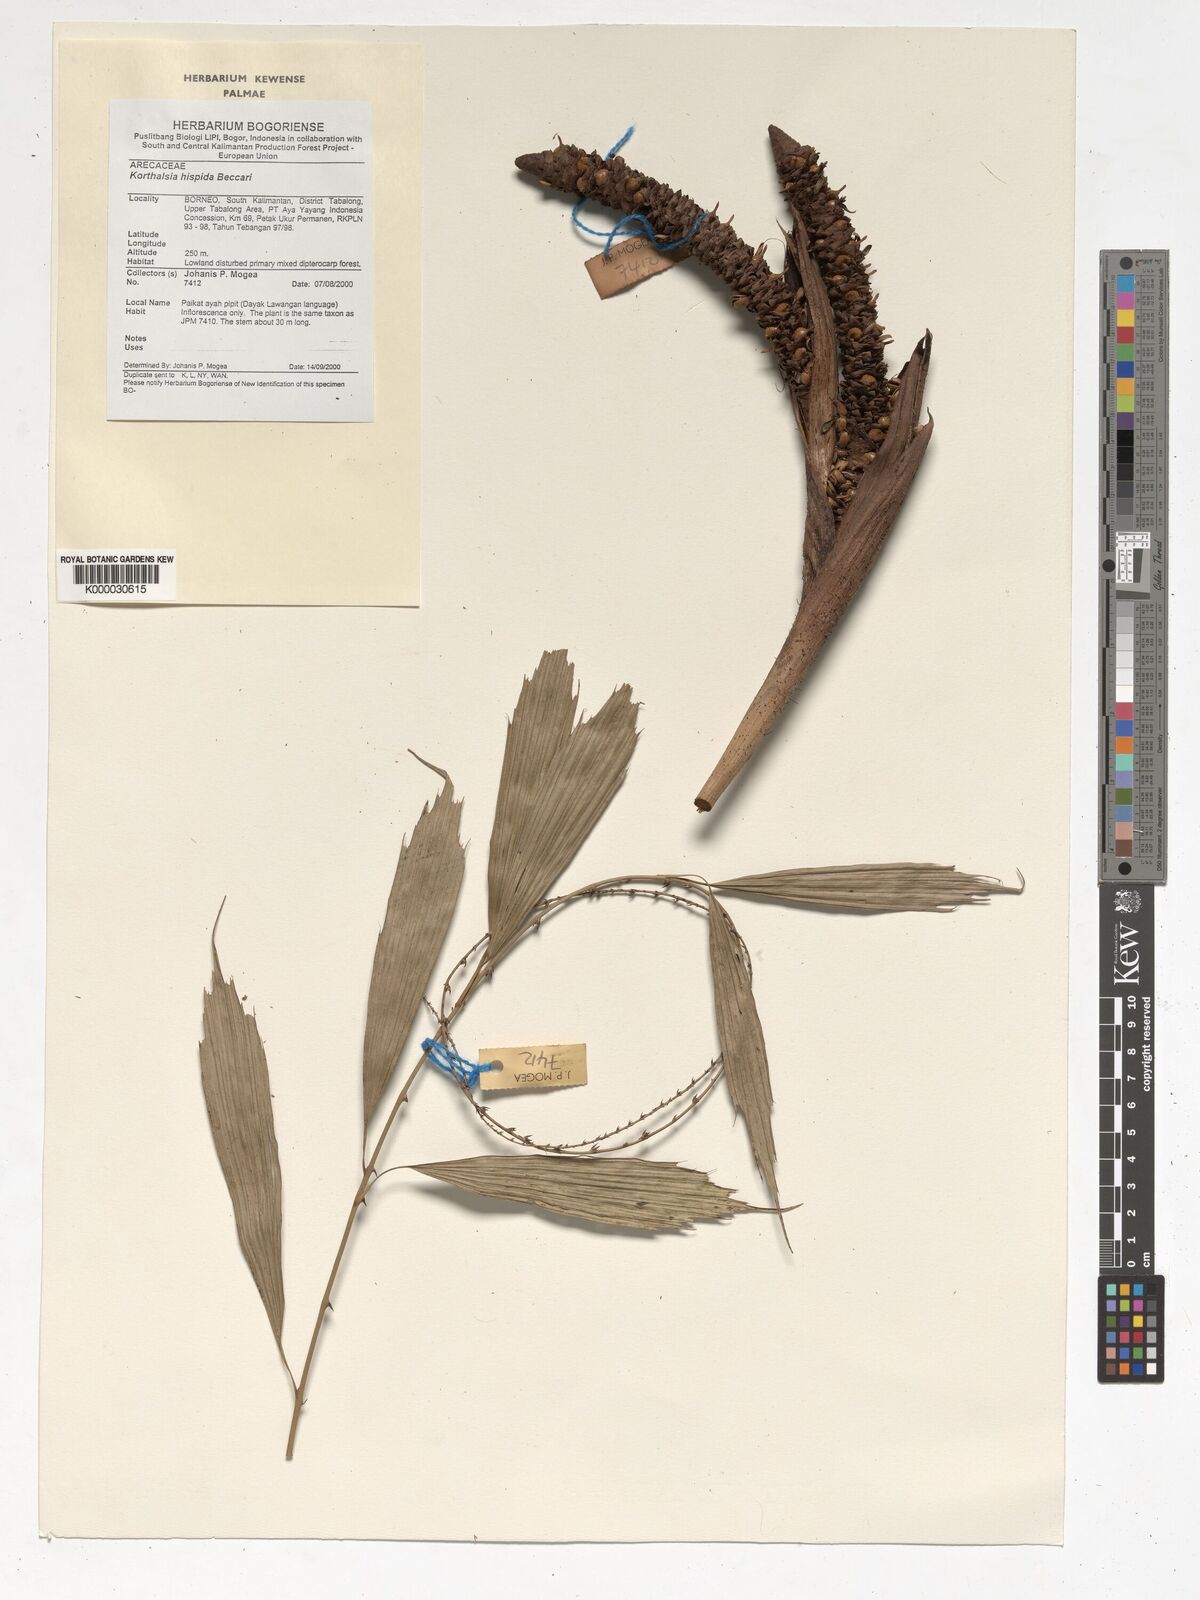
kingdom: Plantae
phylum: Tracheophyta
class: Liliopsida
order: Arecales
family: Arecaceae
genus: Korthalsia
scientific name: Korthalsia hispida
